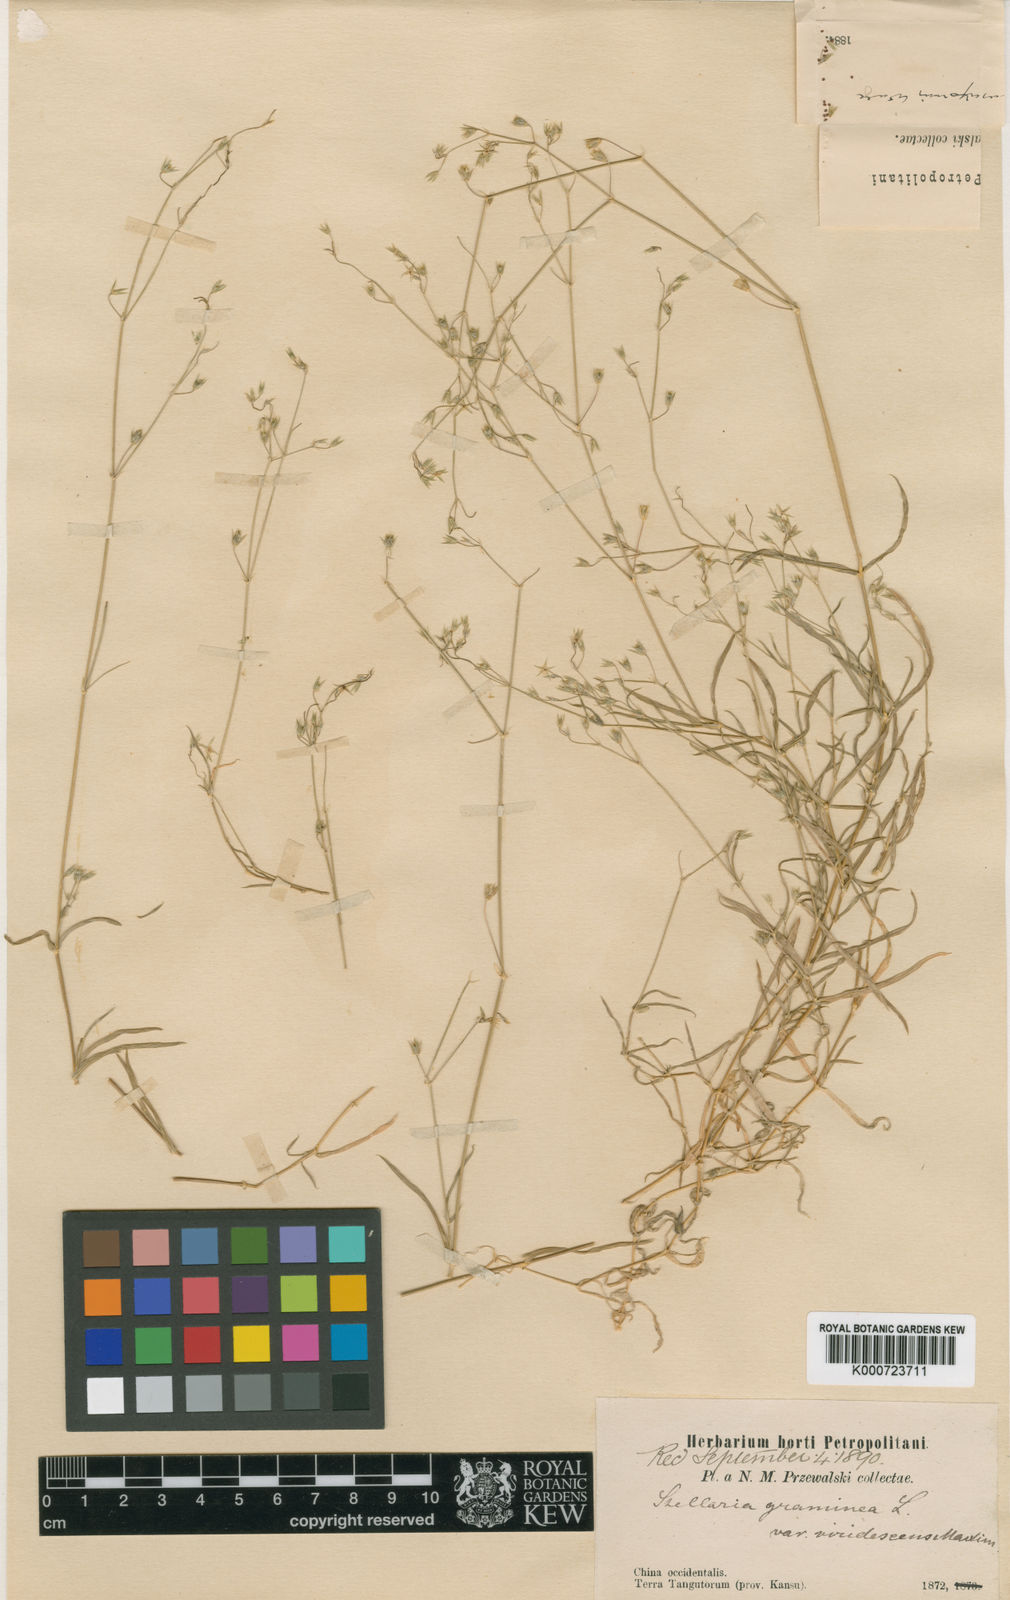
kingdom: Plantae
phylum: Tracheophyta
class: Magnoliopsida
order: Caryophyllales
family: Caryophyllaceae
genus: Stellaria
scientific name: Stellaria graminea
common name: Grass-like starwort
